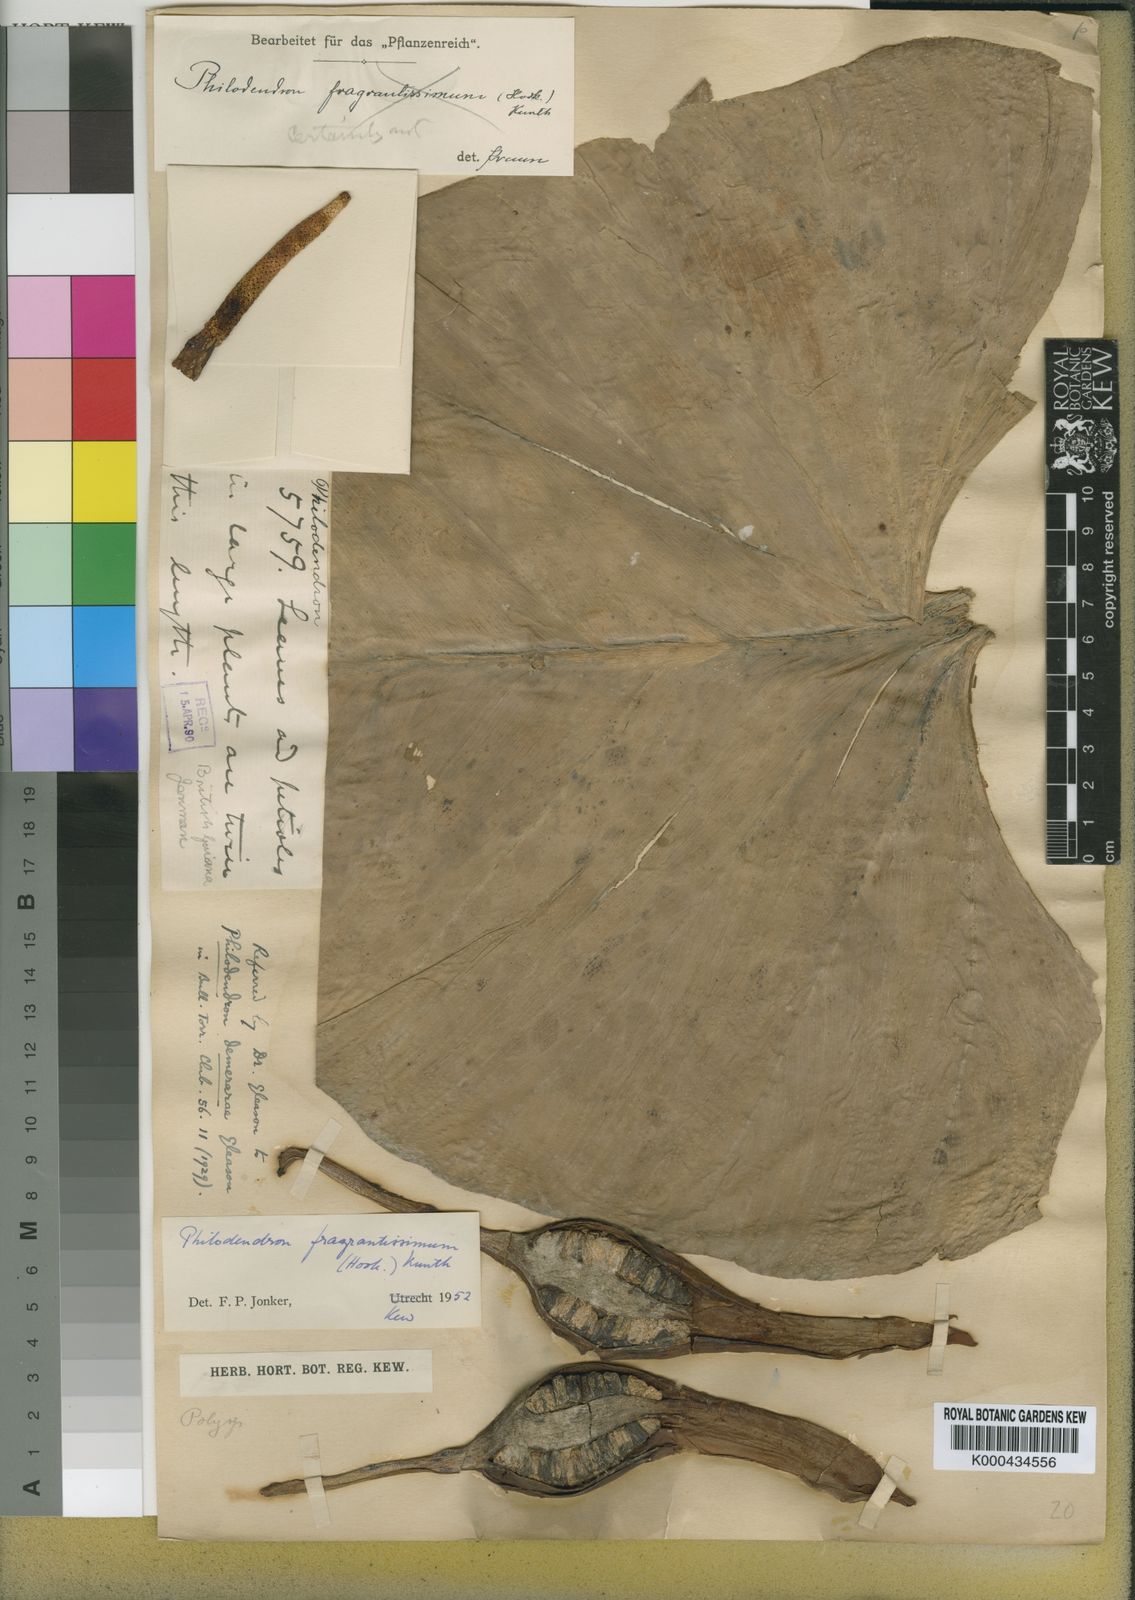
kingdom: Plantae
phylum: Tracheophyta
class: Liliopsida
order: Alismatales
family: Araceae
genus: Philodendron
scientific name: Philodendron
